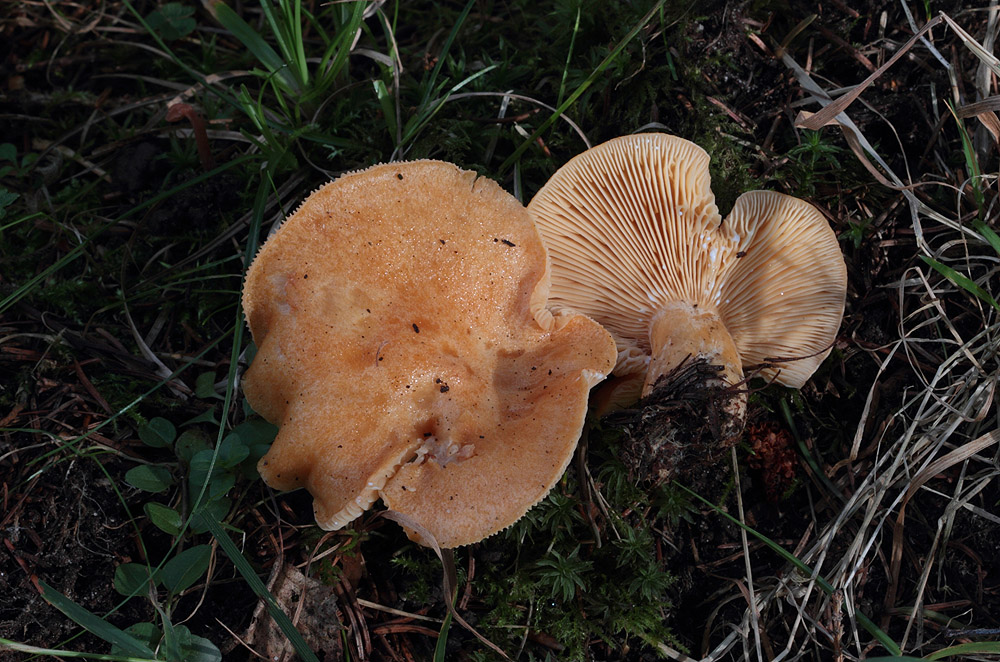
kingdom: Fungi
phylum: Basidiomycota
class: Agaricomycetes
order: Russulales
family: Russulaceae
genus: Lactarius
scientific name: Lactarius porninsis
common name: lærke-mælkehat
